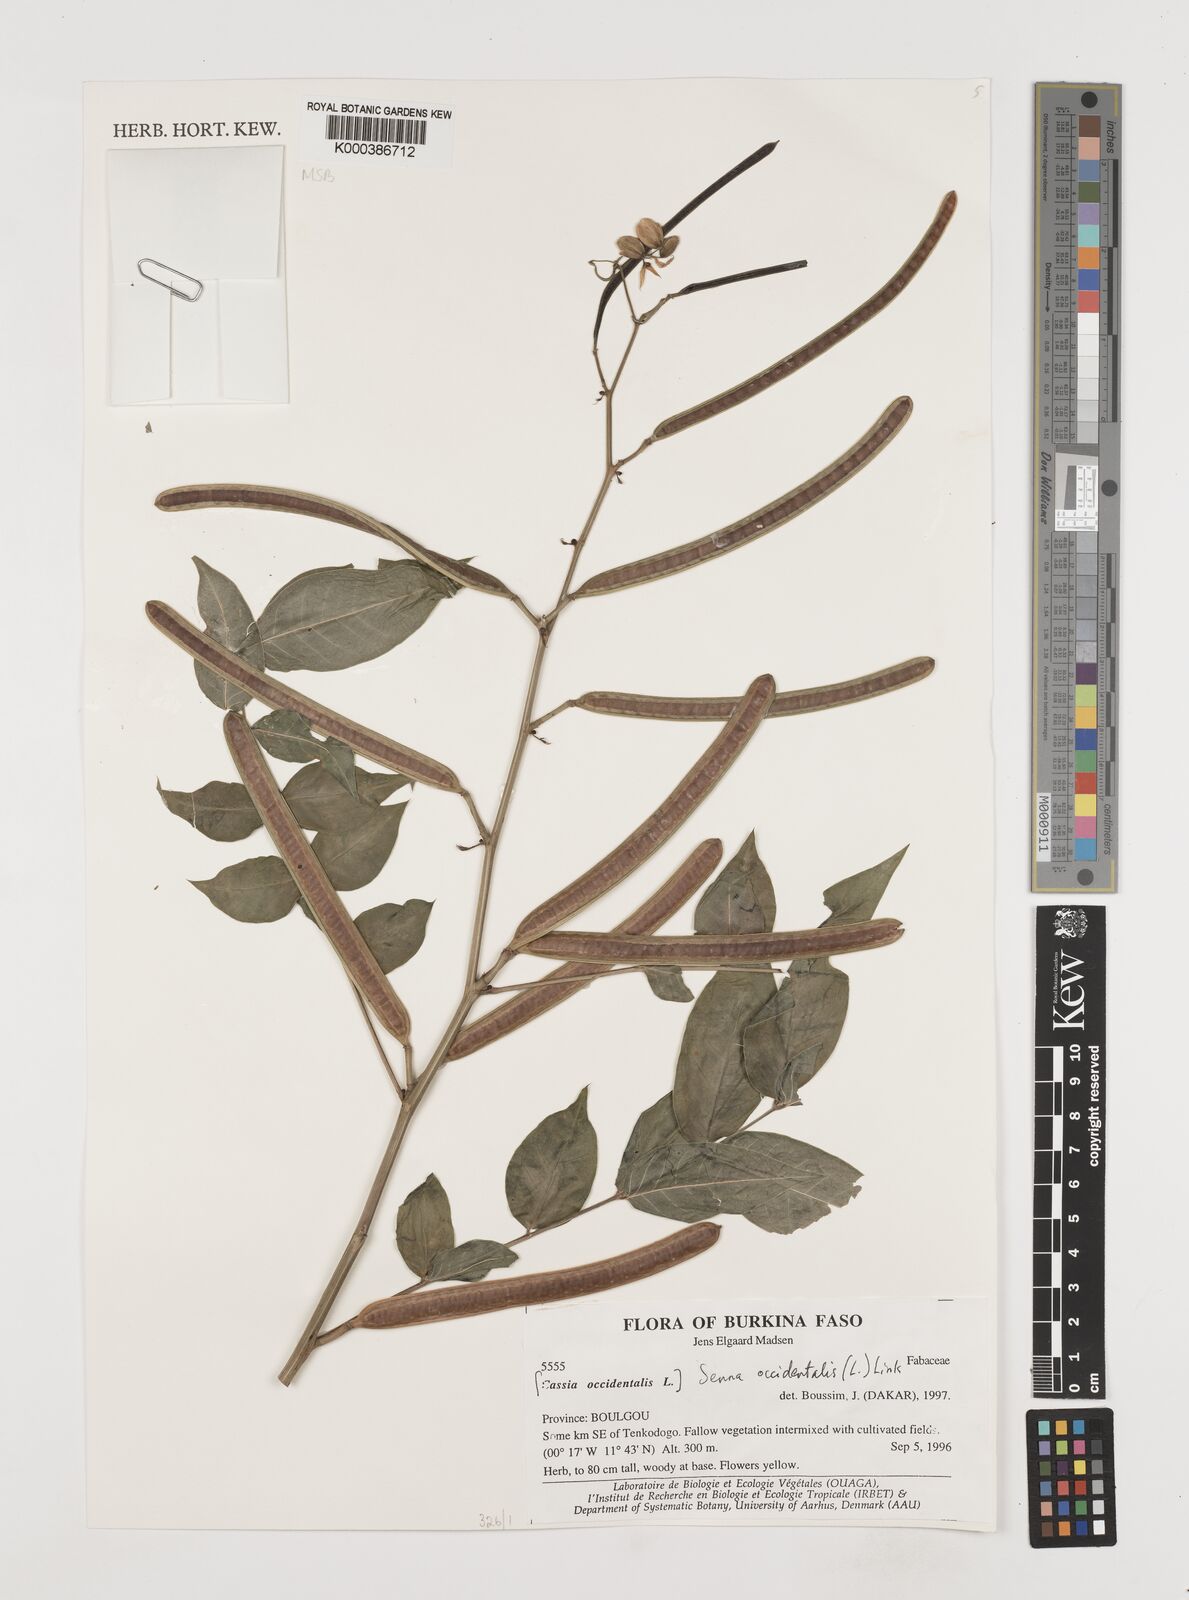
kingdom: Plantae
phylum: Tracheophyta
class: Magnoliopsida
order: Fabales
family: Fabaceae
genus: Senna
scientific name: Senna occidentalis
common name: Septicweed
